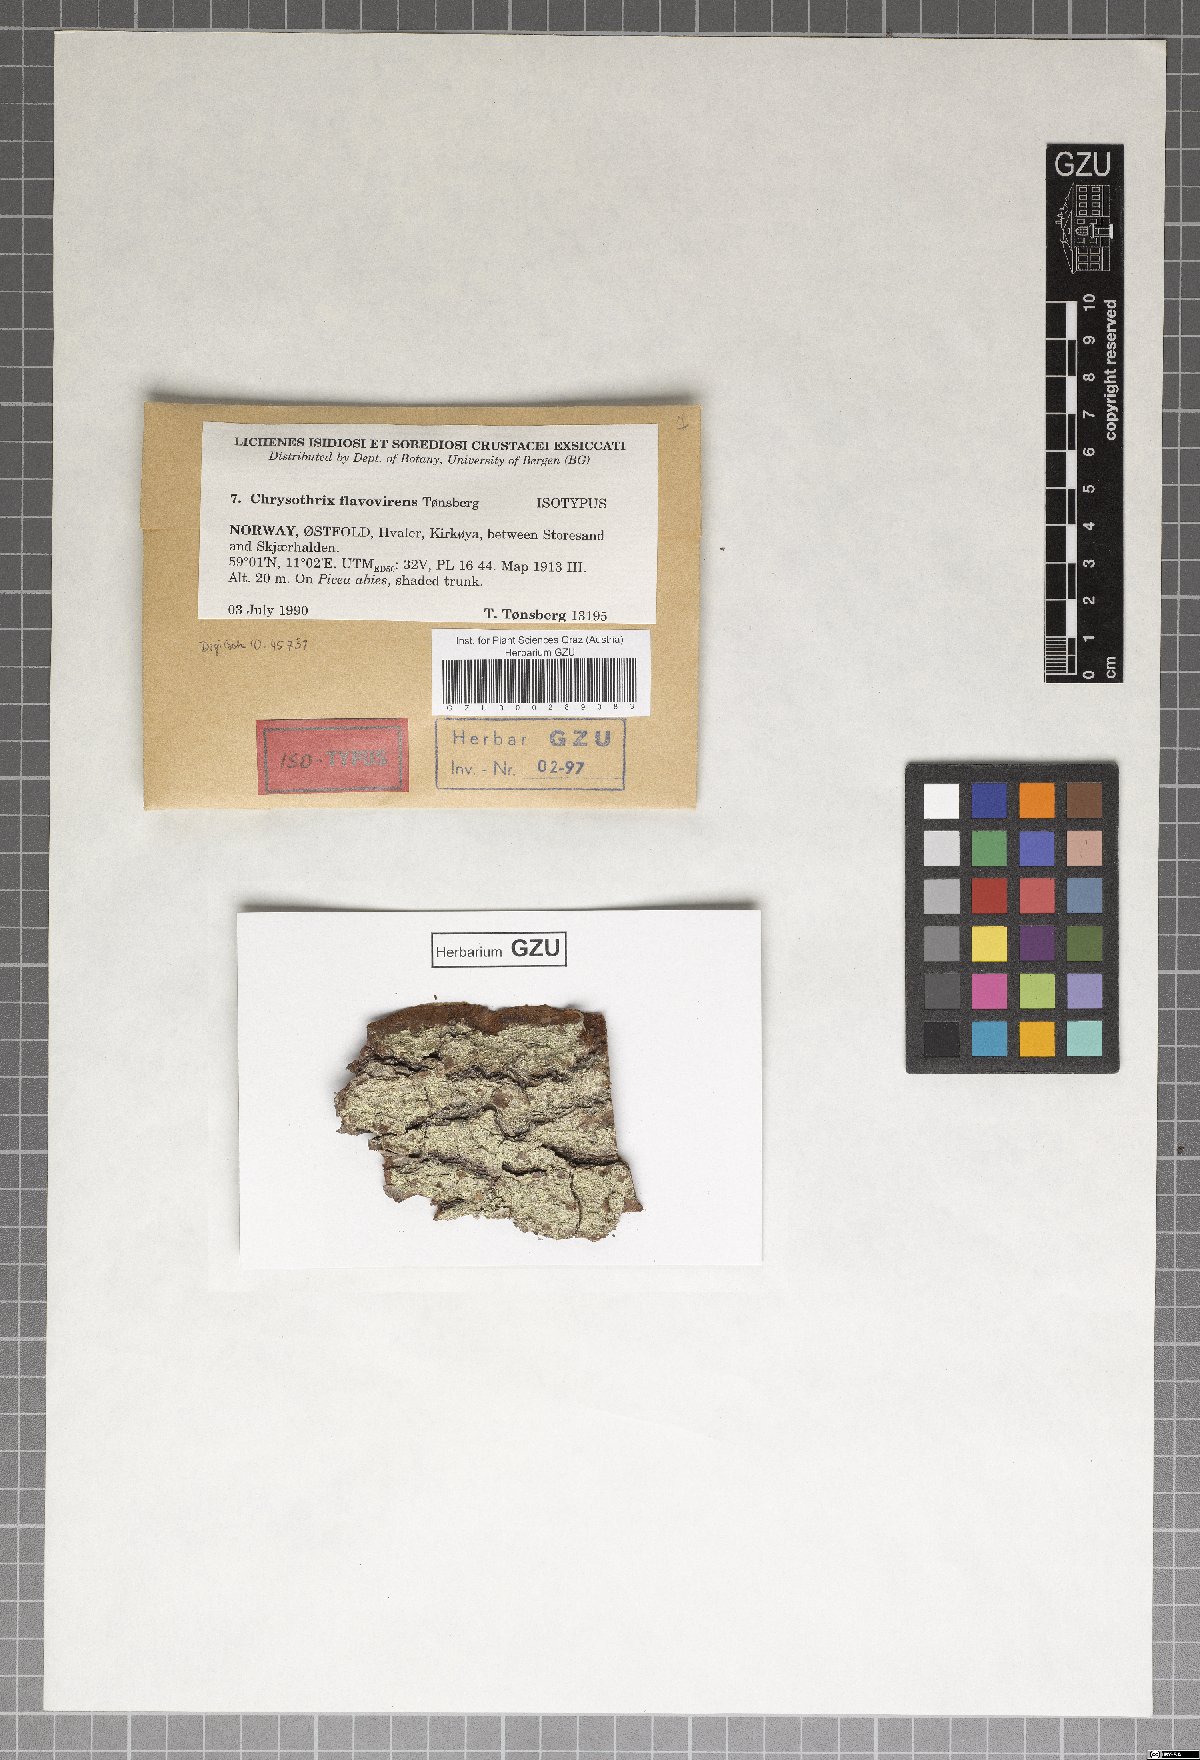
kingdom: Fungi
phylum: Ascomycota
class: Arthoniomycetes
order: Arthoniales
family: Chrysotrichaceae
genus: Chrysothrix
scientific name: Chrysothrix flavovirens
